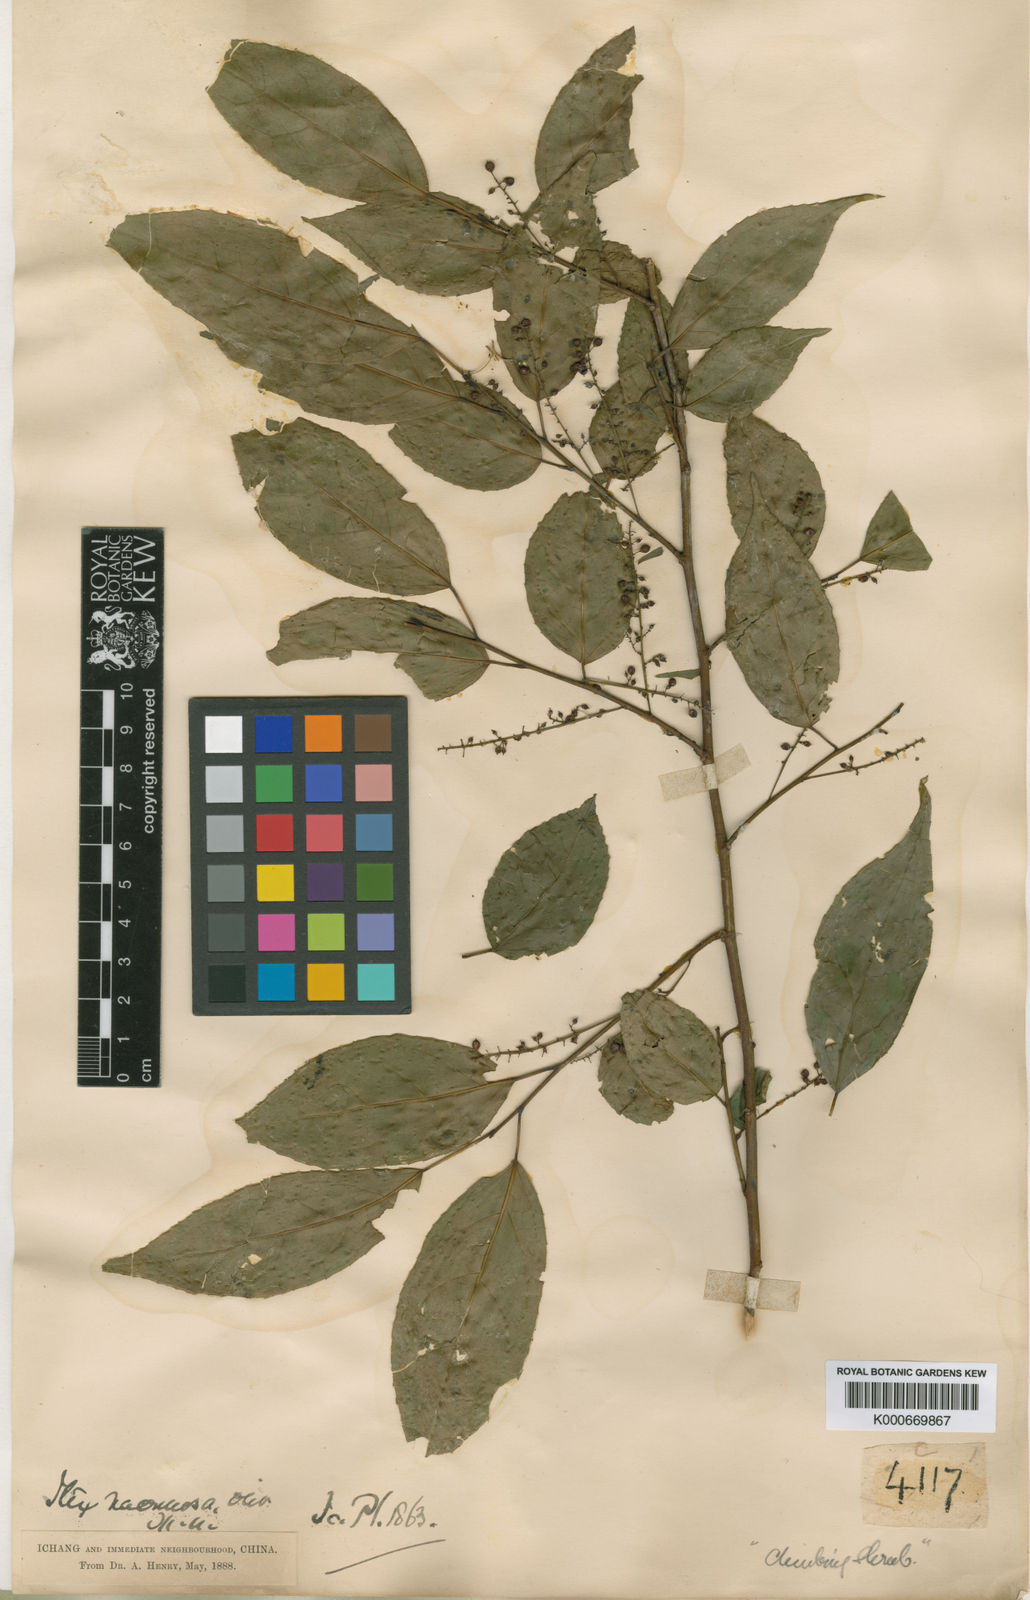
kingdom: Plantae
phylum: Tracheophyta
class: Magnoliopsida
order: Huerteales
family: Dipentodontaceae
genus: Perrottetia
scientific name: Perrottetia racemosa
